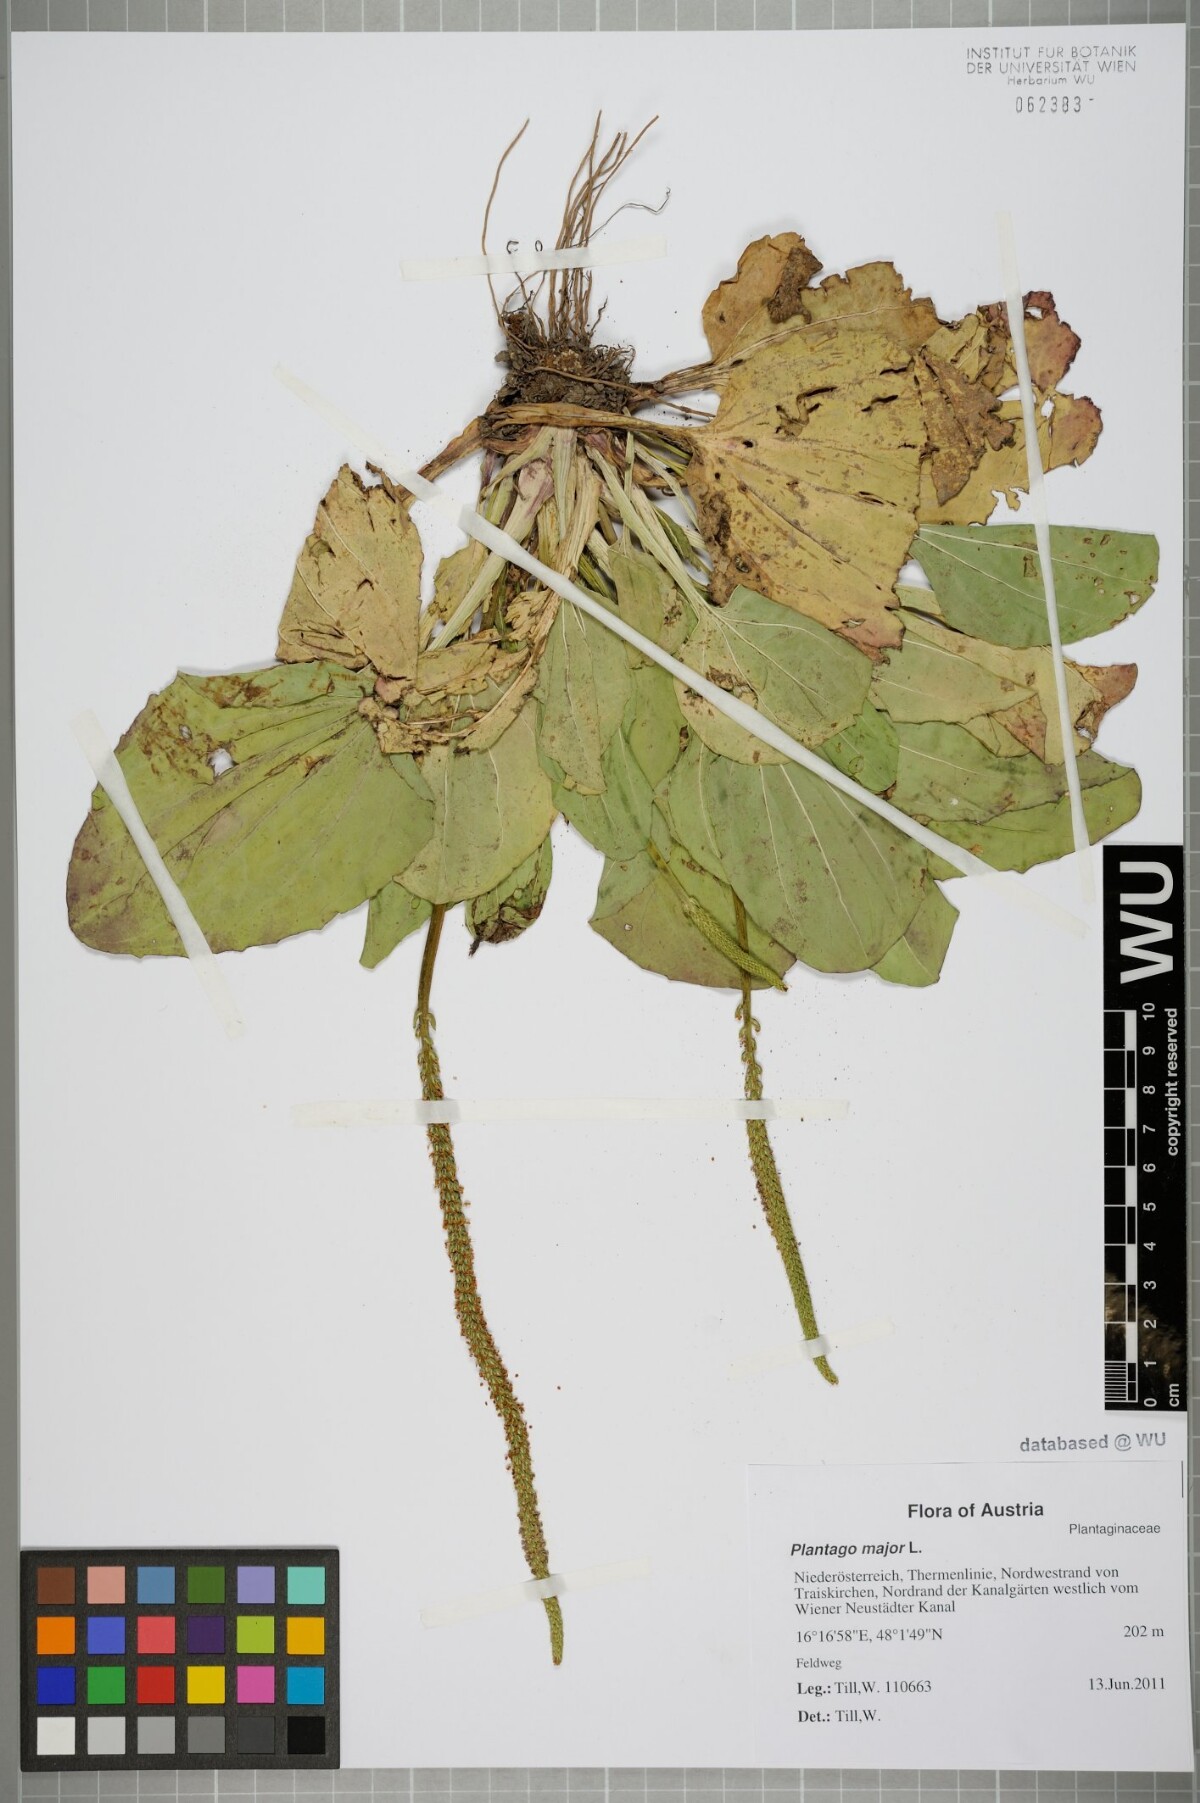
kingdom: Plantae
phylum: Tracheophyta
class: Magnoliopsida
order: Lamiales
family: Plantaginaceae
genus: Plantago
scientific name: Plantago major
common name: Common plantain
